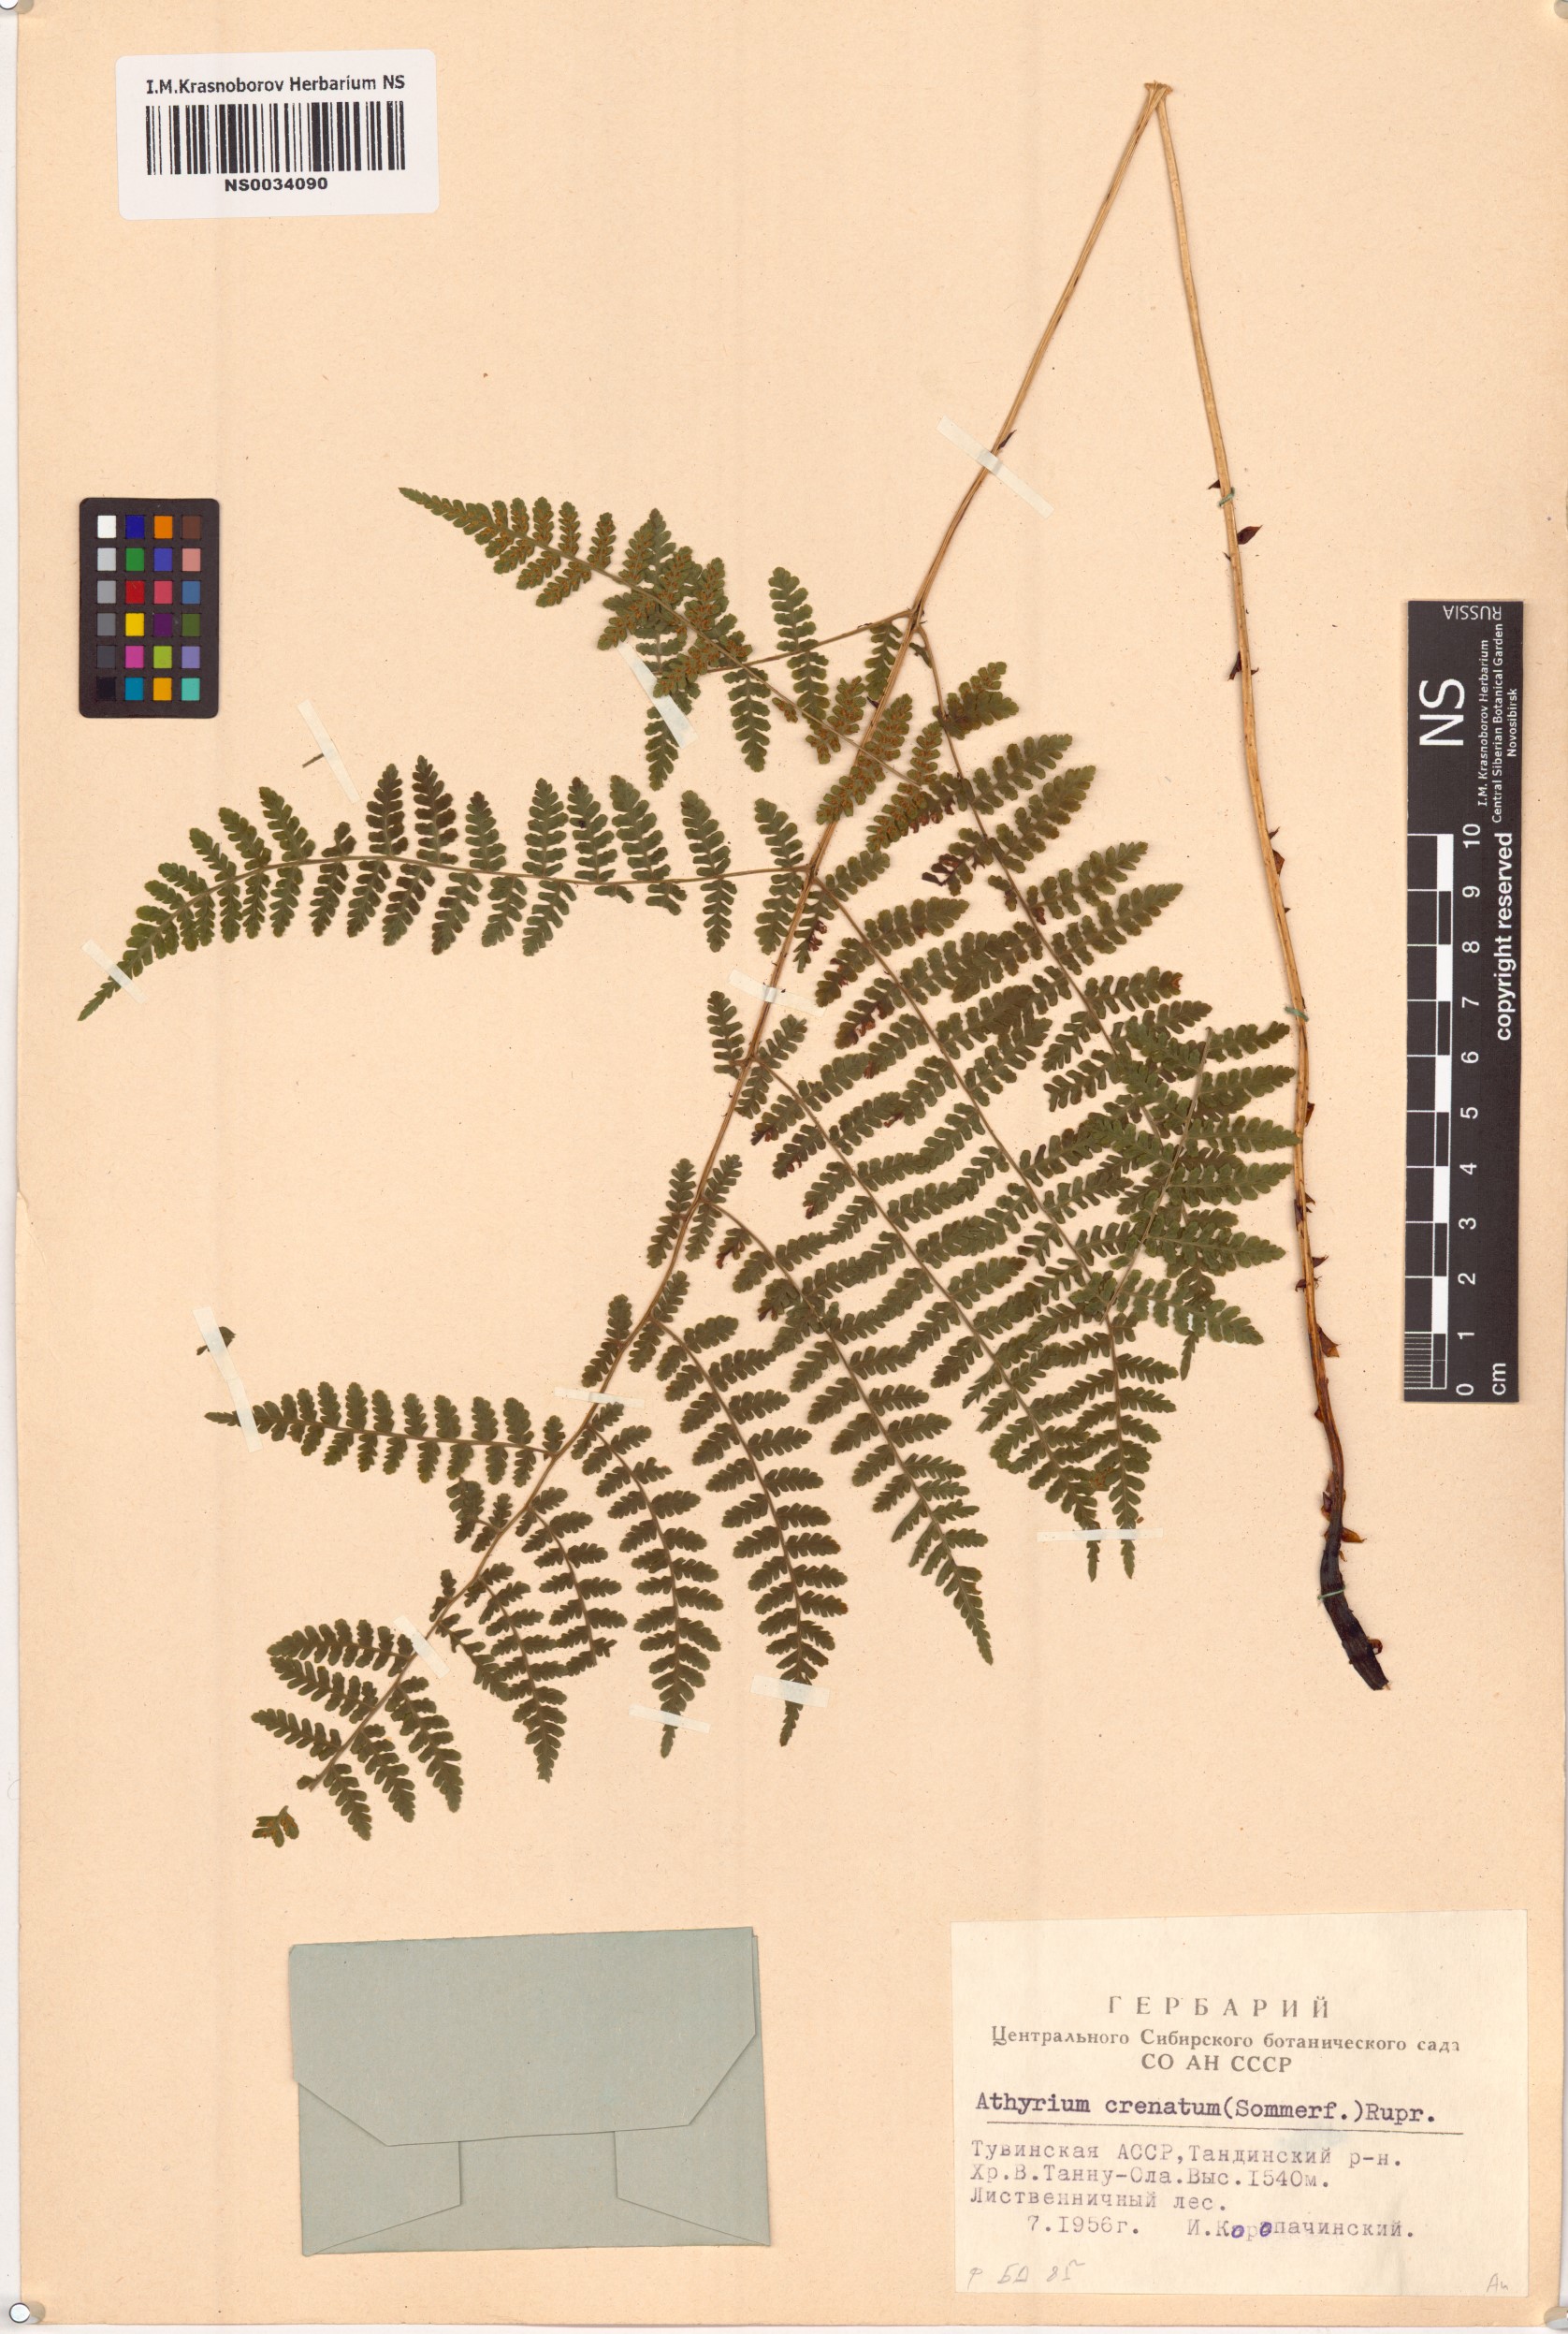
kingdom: Plantae
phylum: Tracheophyta
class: Polypodiopsida
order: Polypodiales
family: Athyriaceae
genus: Diplazium
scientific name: Diplazium sibiricum
